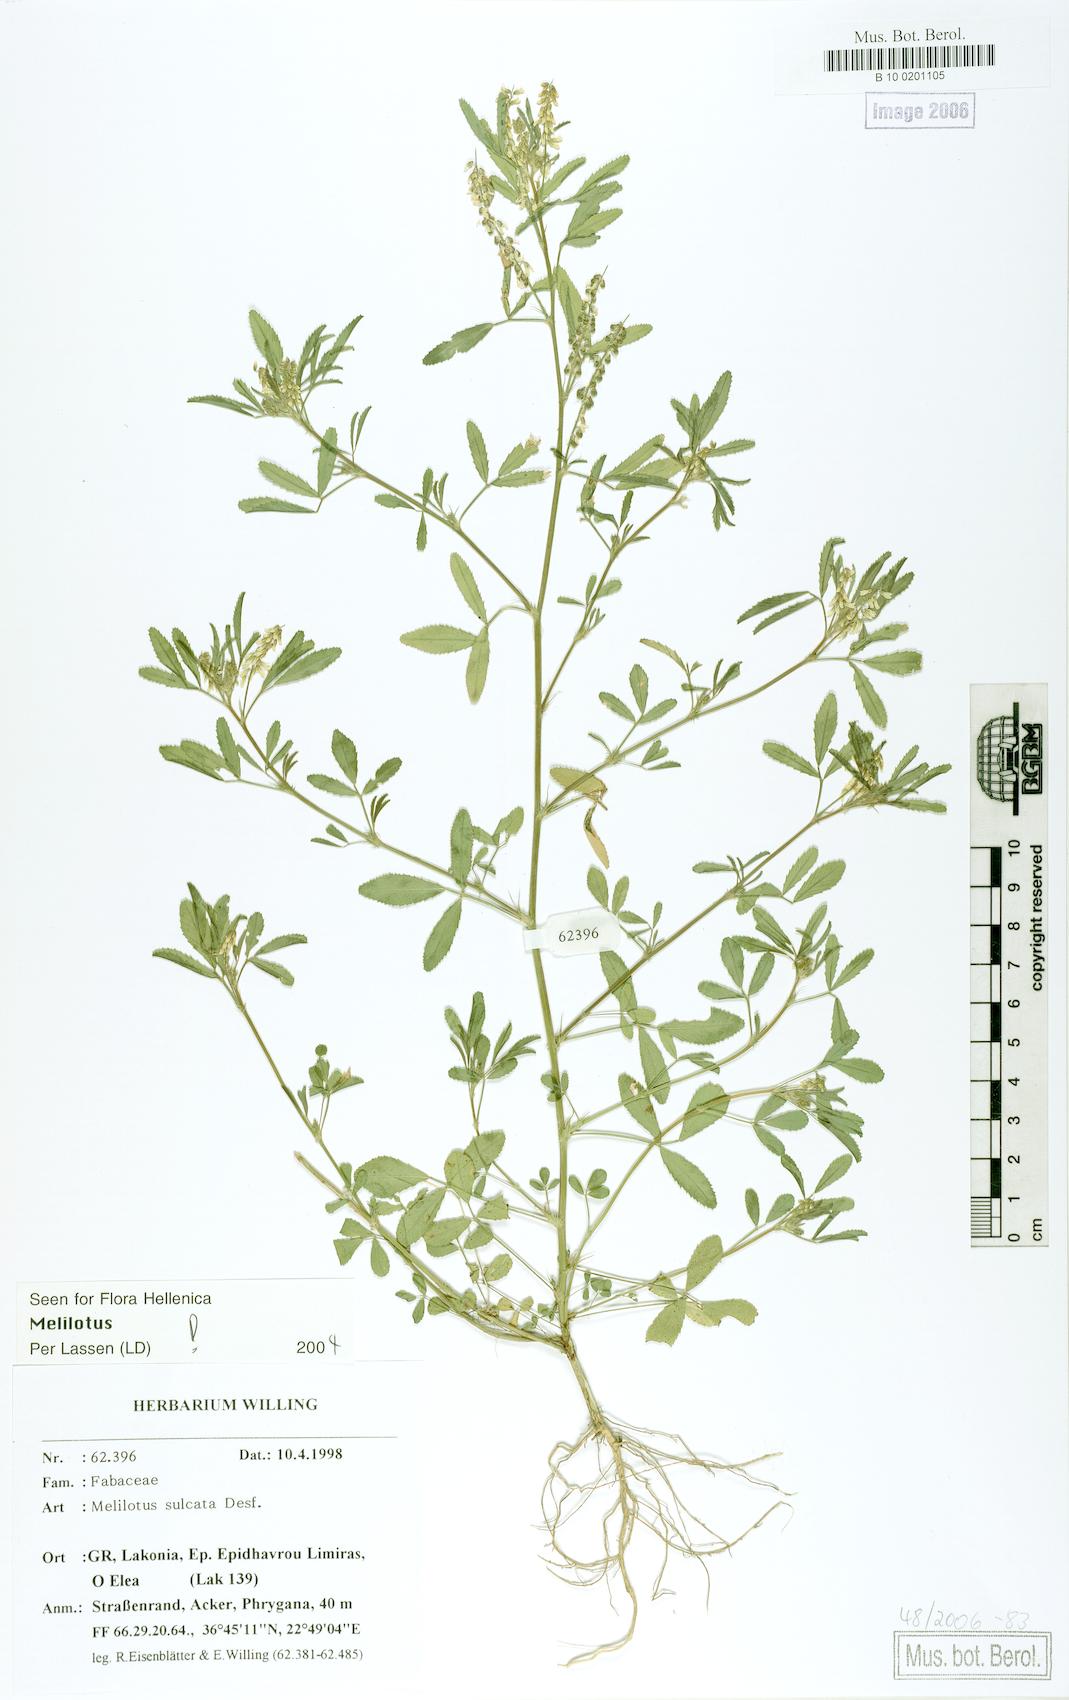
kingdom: Plantae
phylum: Tracheophyta
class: Magnoliopsida
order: Fabales
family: Fabaceae
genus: Melilotus
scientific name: Melilotus sulcatus
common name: Furrowed melilot
